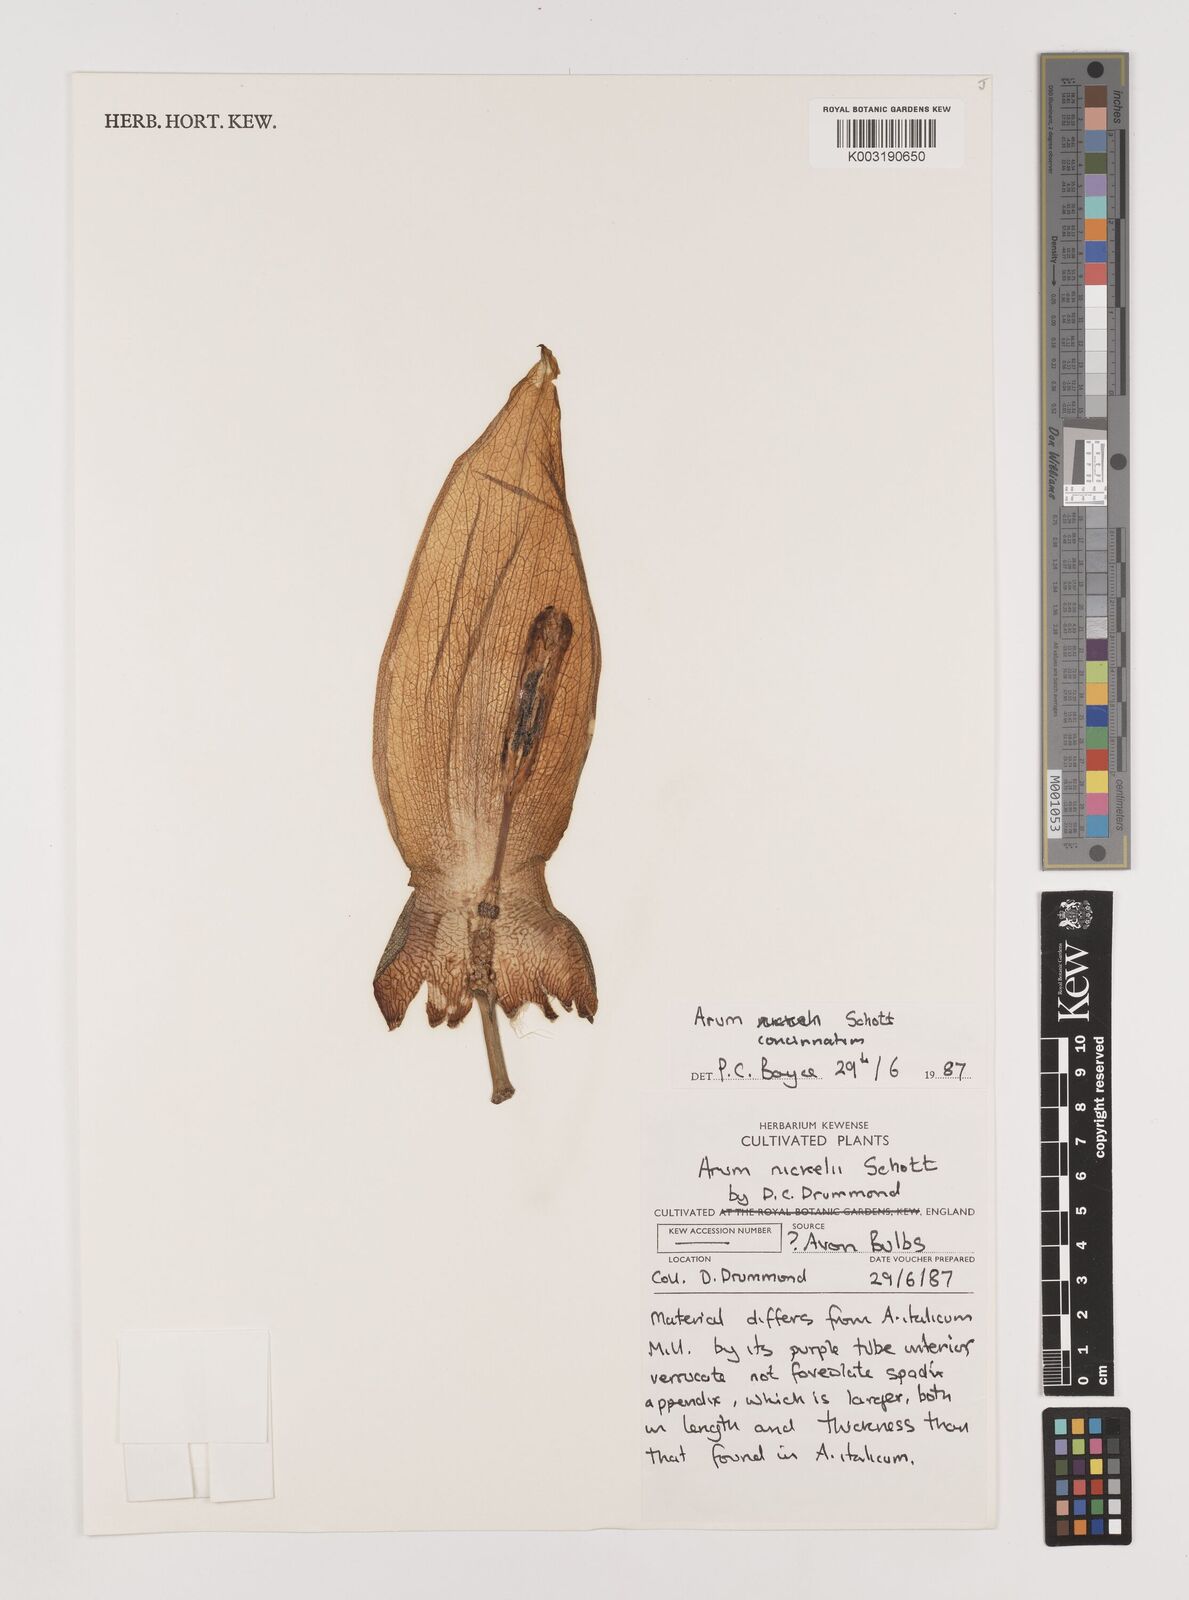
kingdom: Plantae
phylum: Tracheophyta
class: Liliopsida
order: Alismatales
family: Araceae
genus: Arum
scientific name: Arum concinnatum
